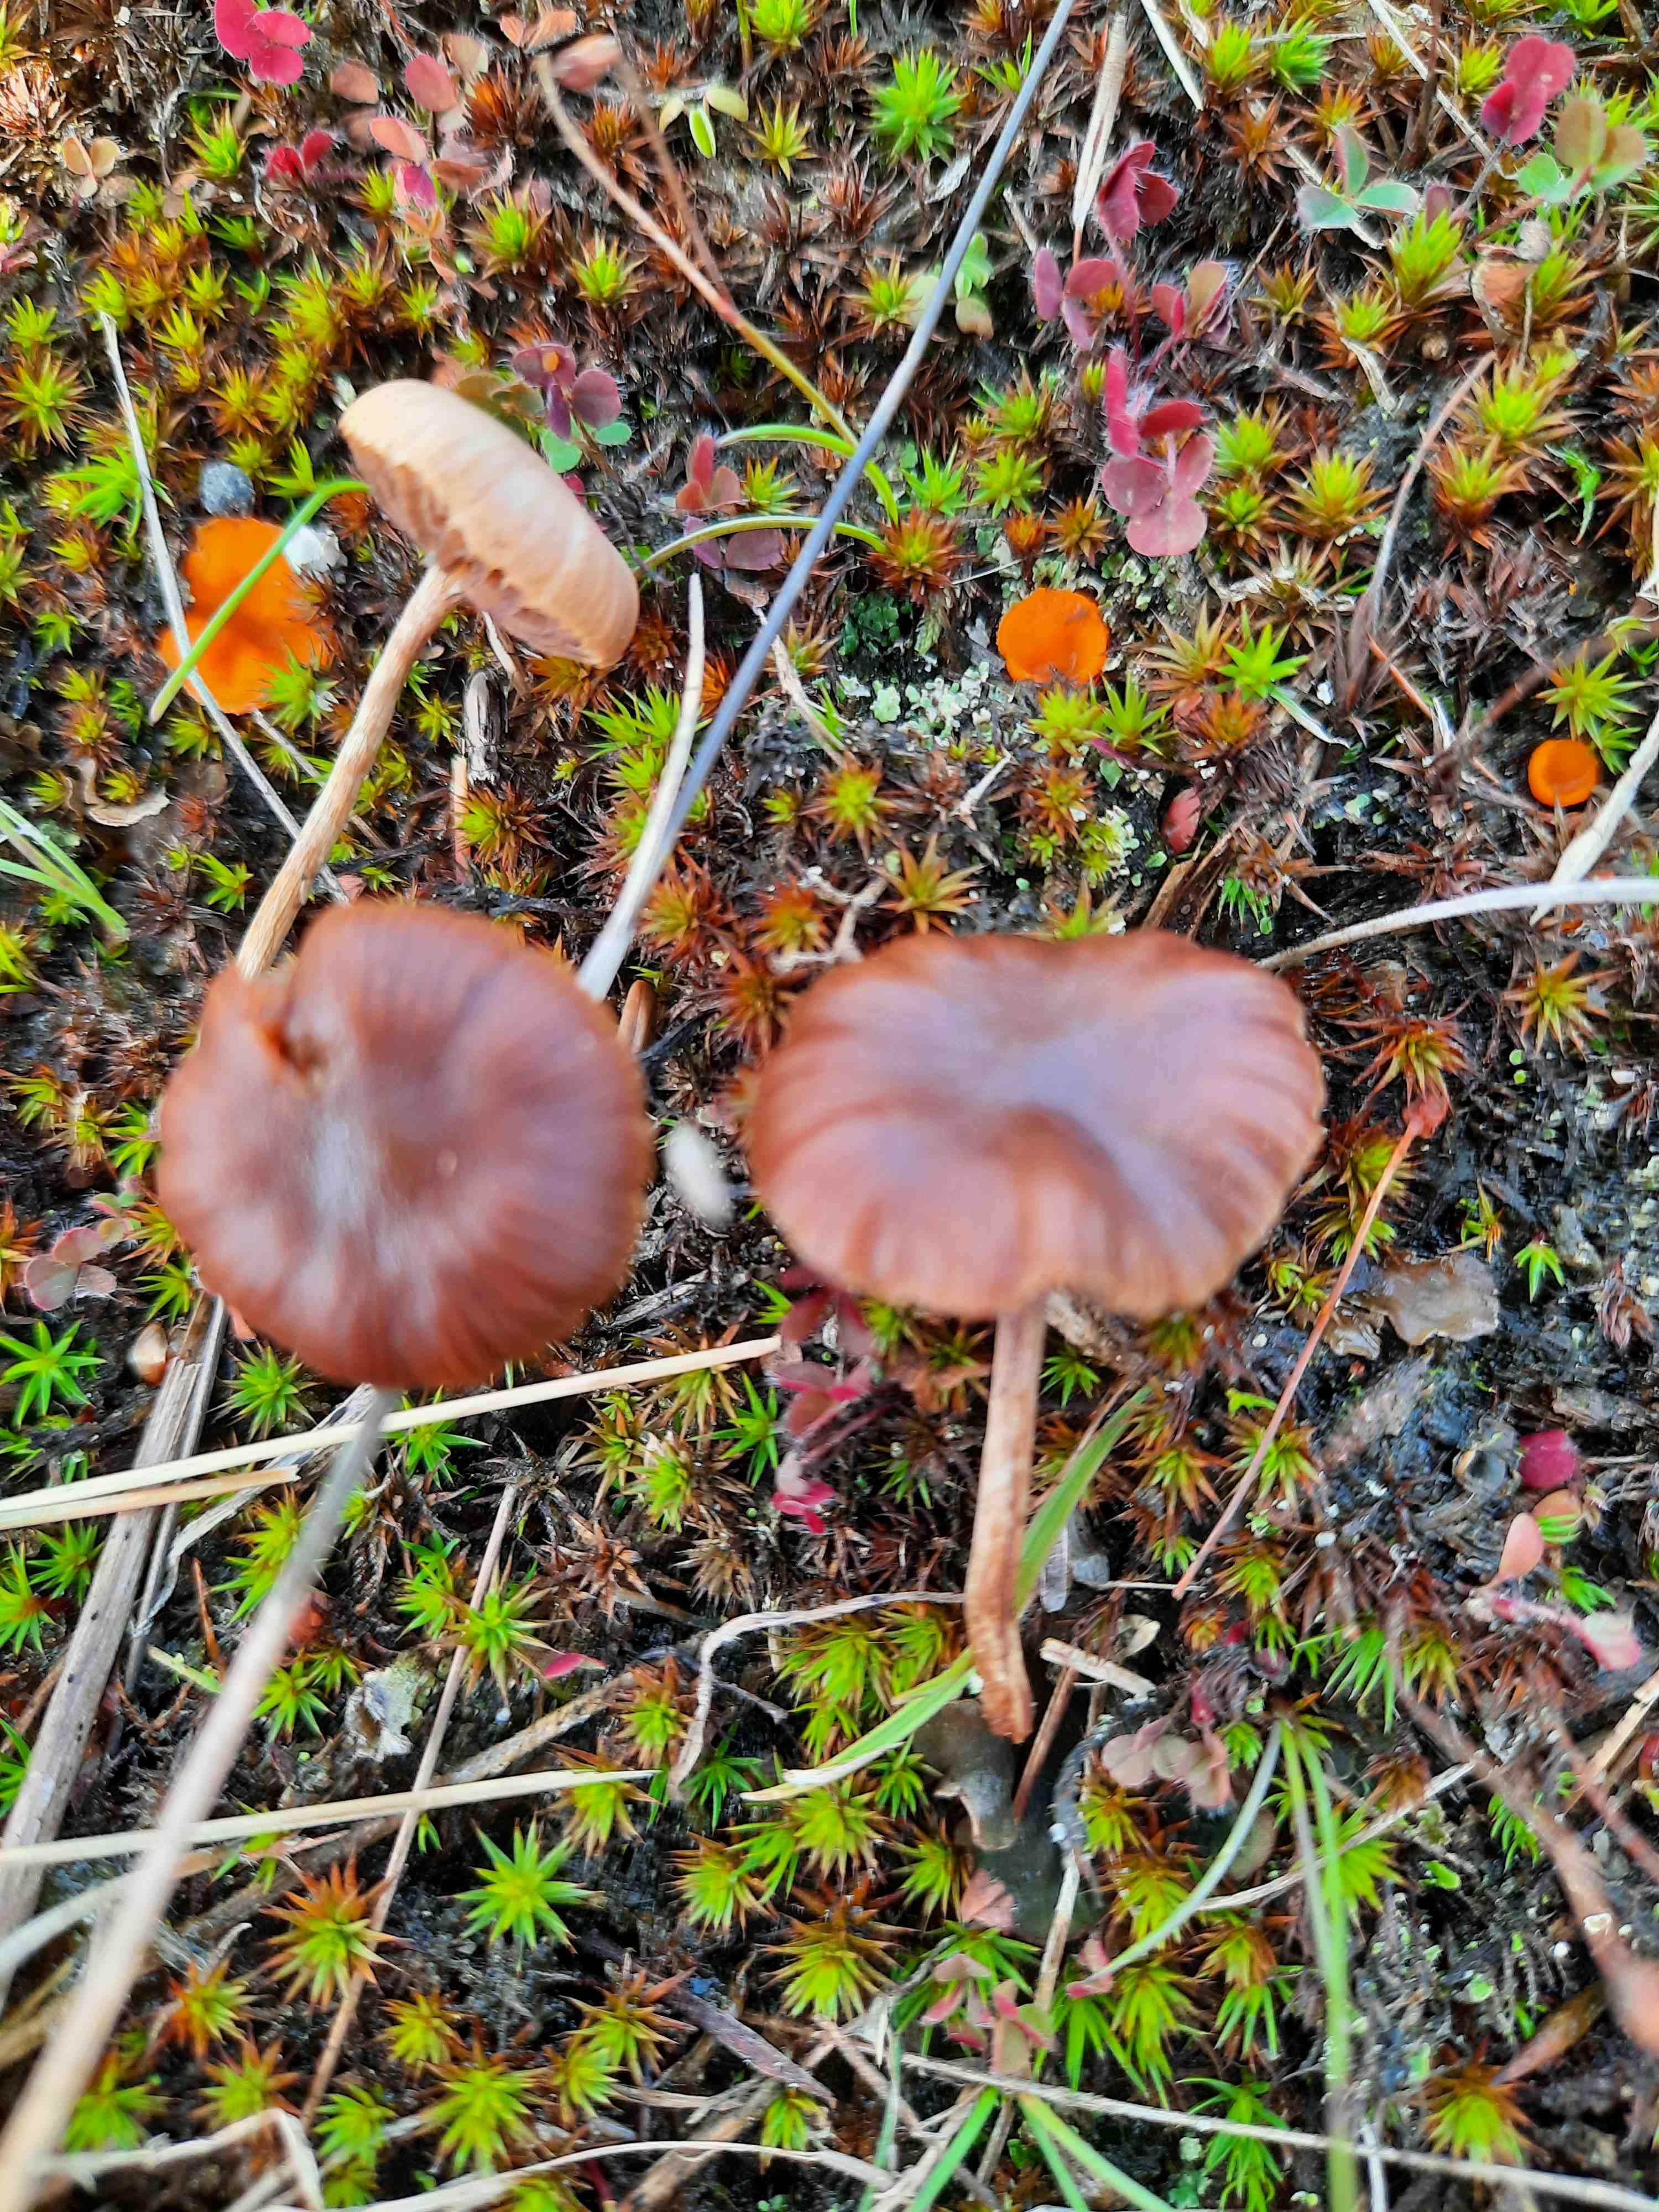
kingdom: Fungi
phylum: Basidiomycota
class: Agaricomycetes
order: Agaricales
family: Strophariaceae
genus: Deconica
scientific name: Deconica montana
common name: rødbrun stråhat
